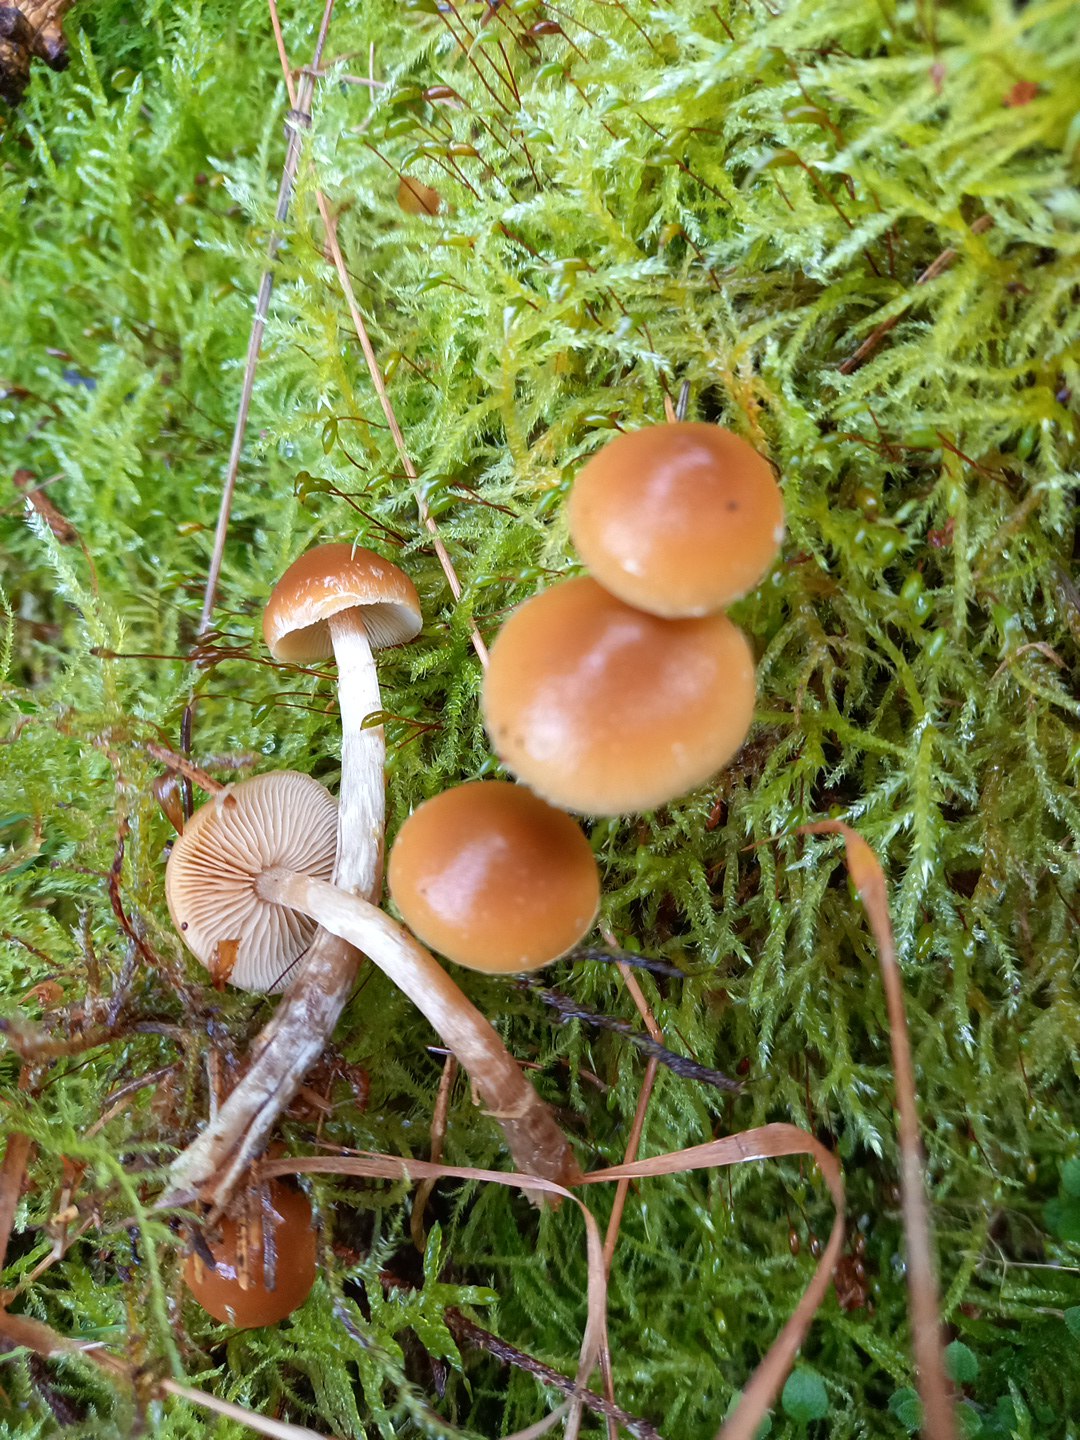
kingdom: Fungi
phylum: Basidiomycota
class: Agaricomycetes
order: Agaricales
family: Hymenogastraceae
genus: Galerina
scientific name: Galerina sideroides
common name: træflis-hjelmhat
